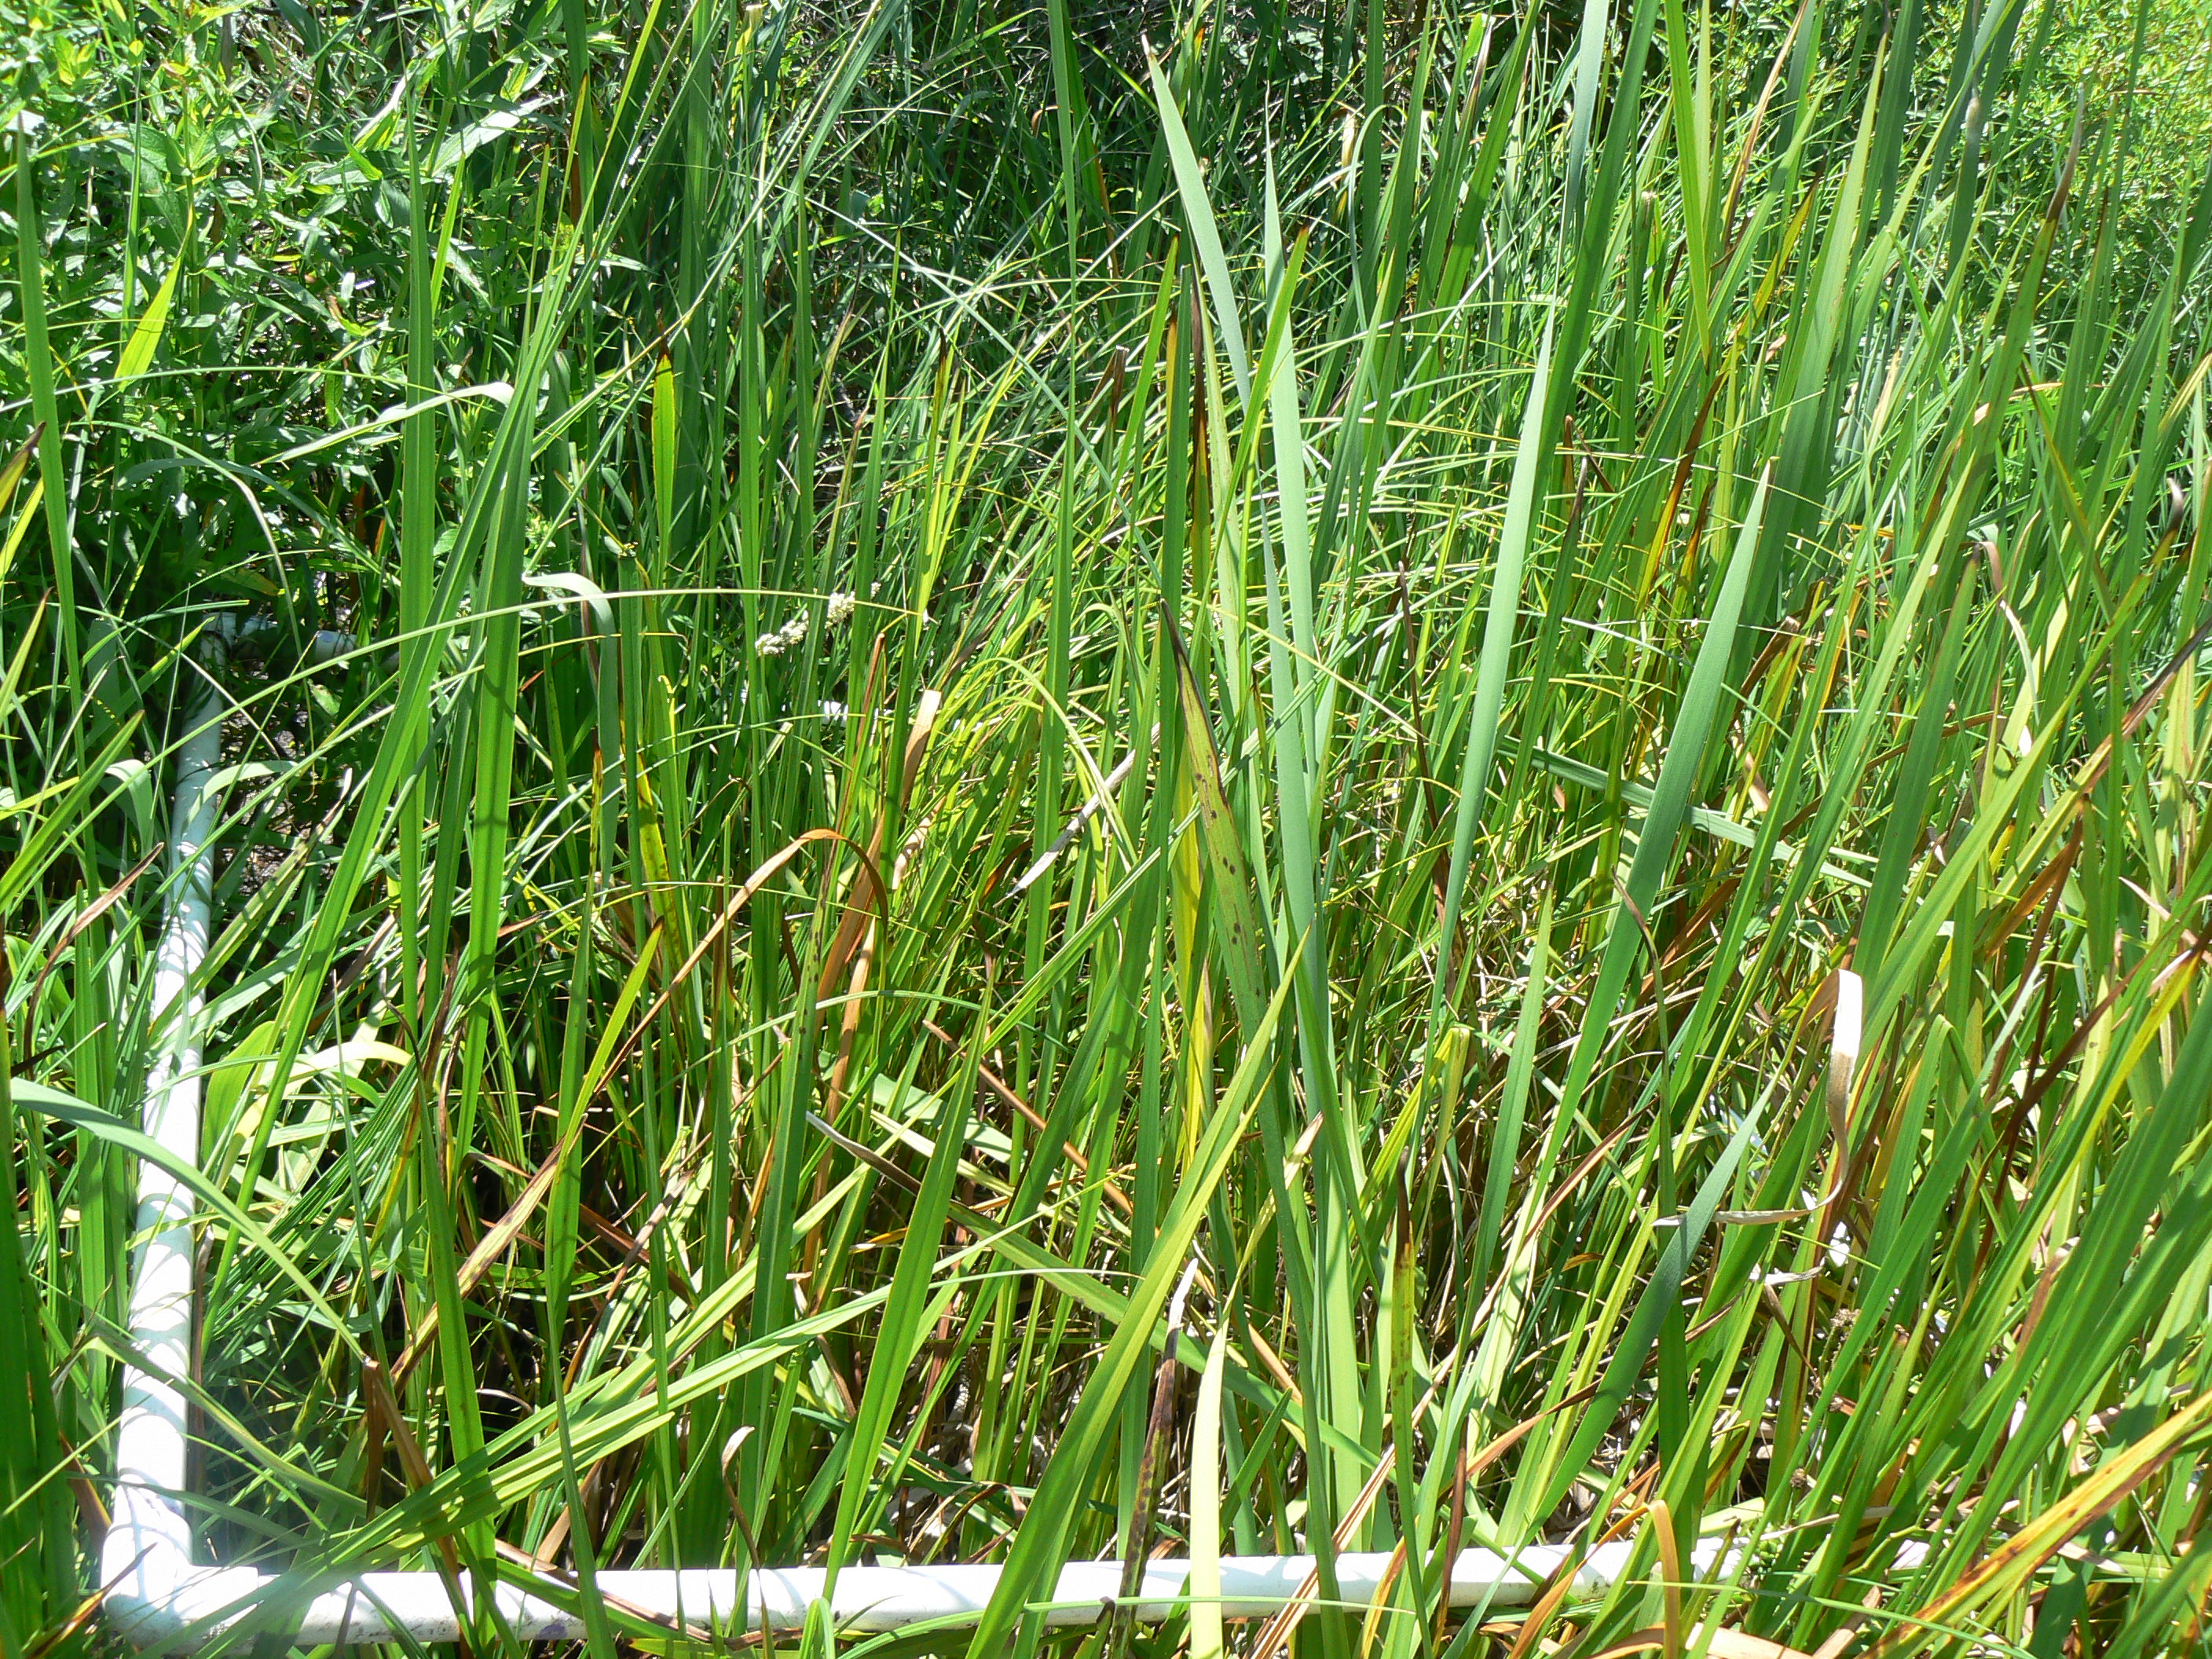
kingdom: Plantae
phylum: Tracheophyta
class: Magnoliopsida
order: Gentianales
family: Rubiaceae
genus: Galium
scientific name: Galium labradoricum
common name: Labrador bedstraw
